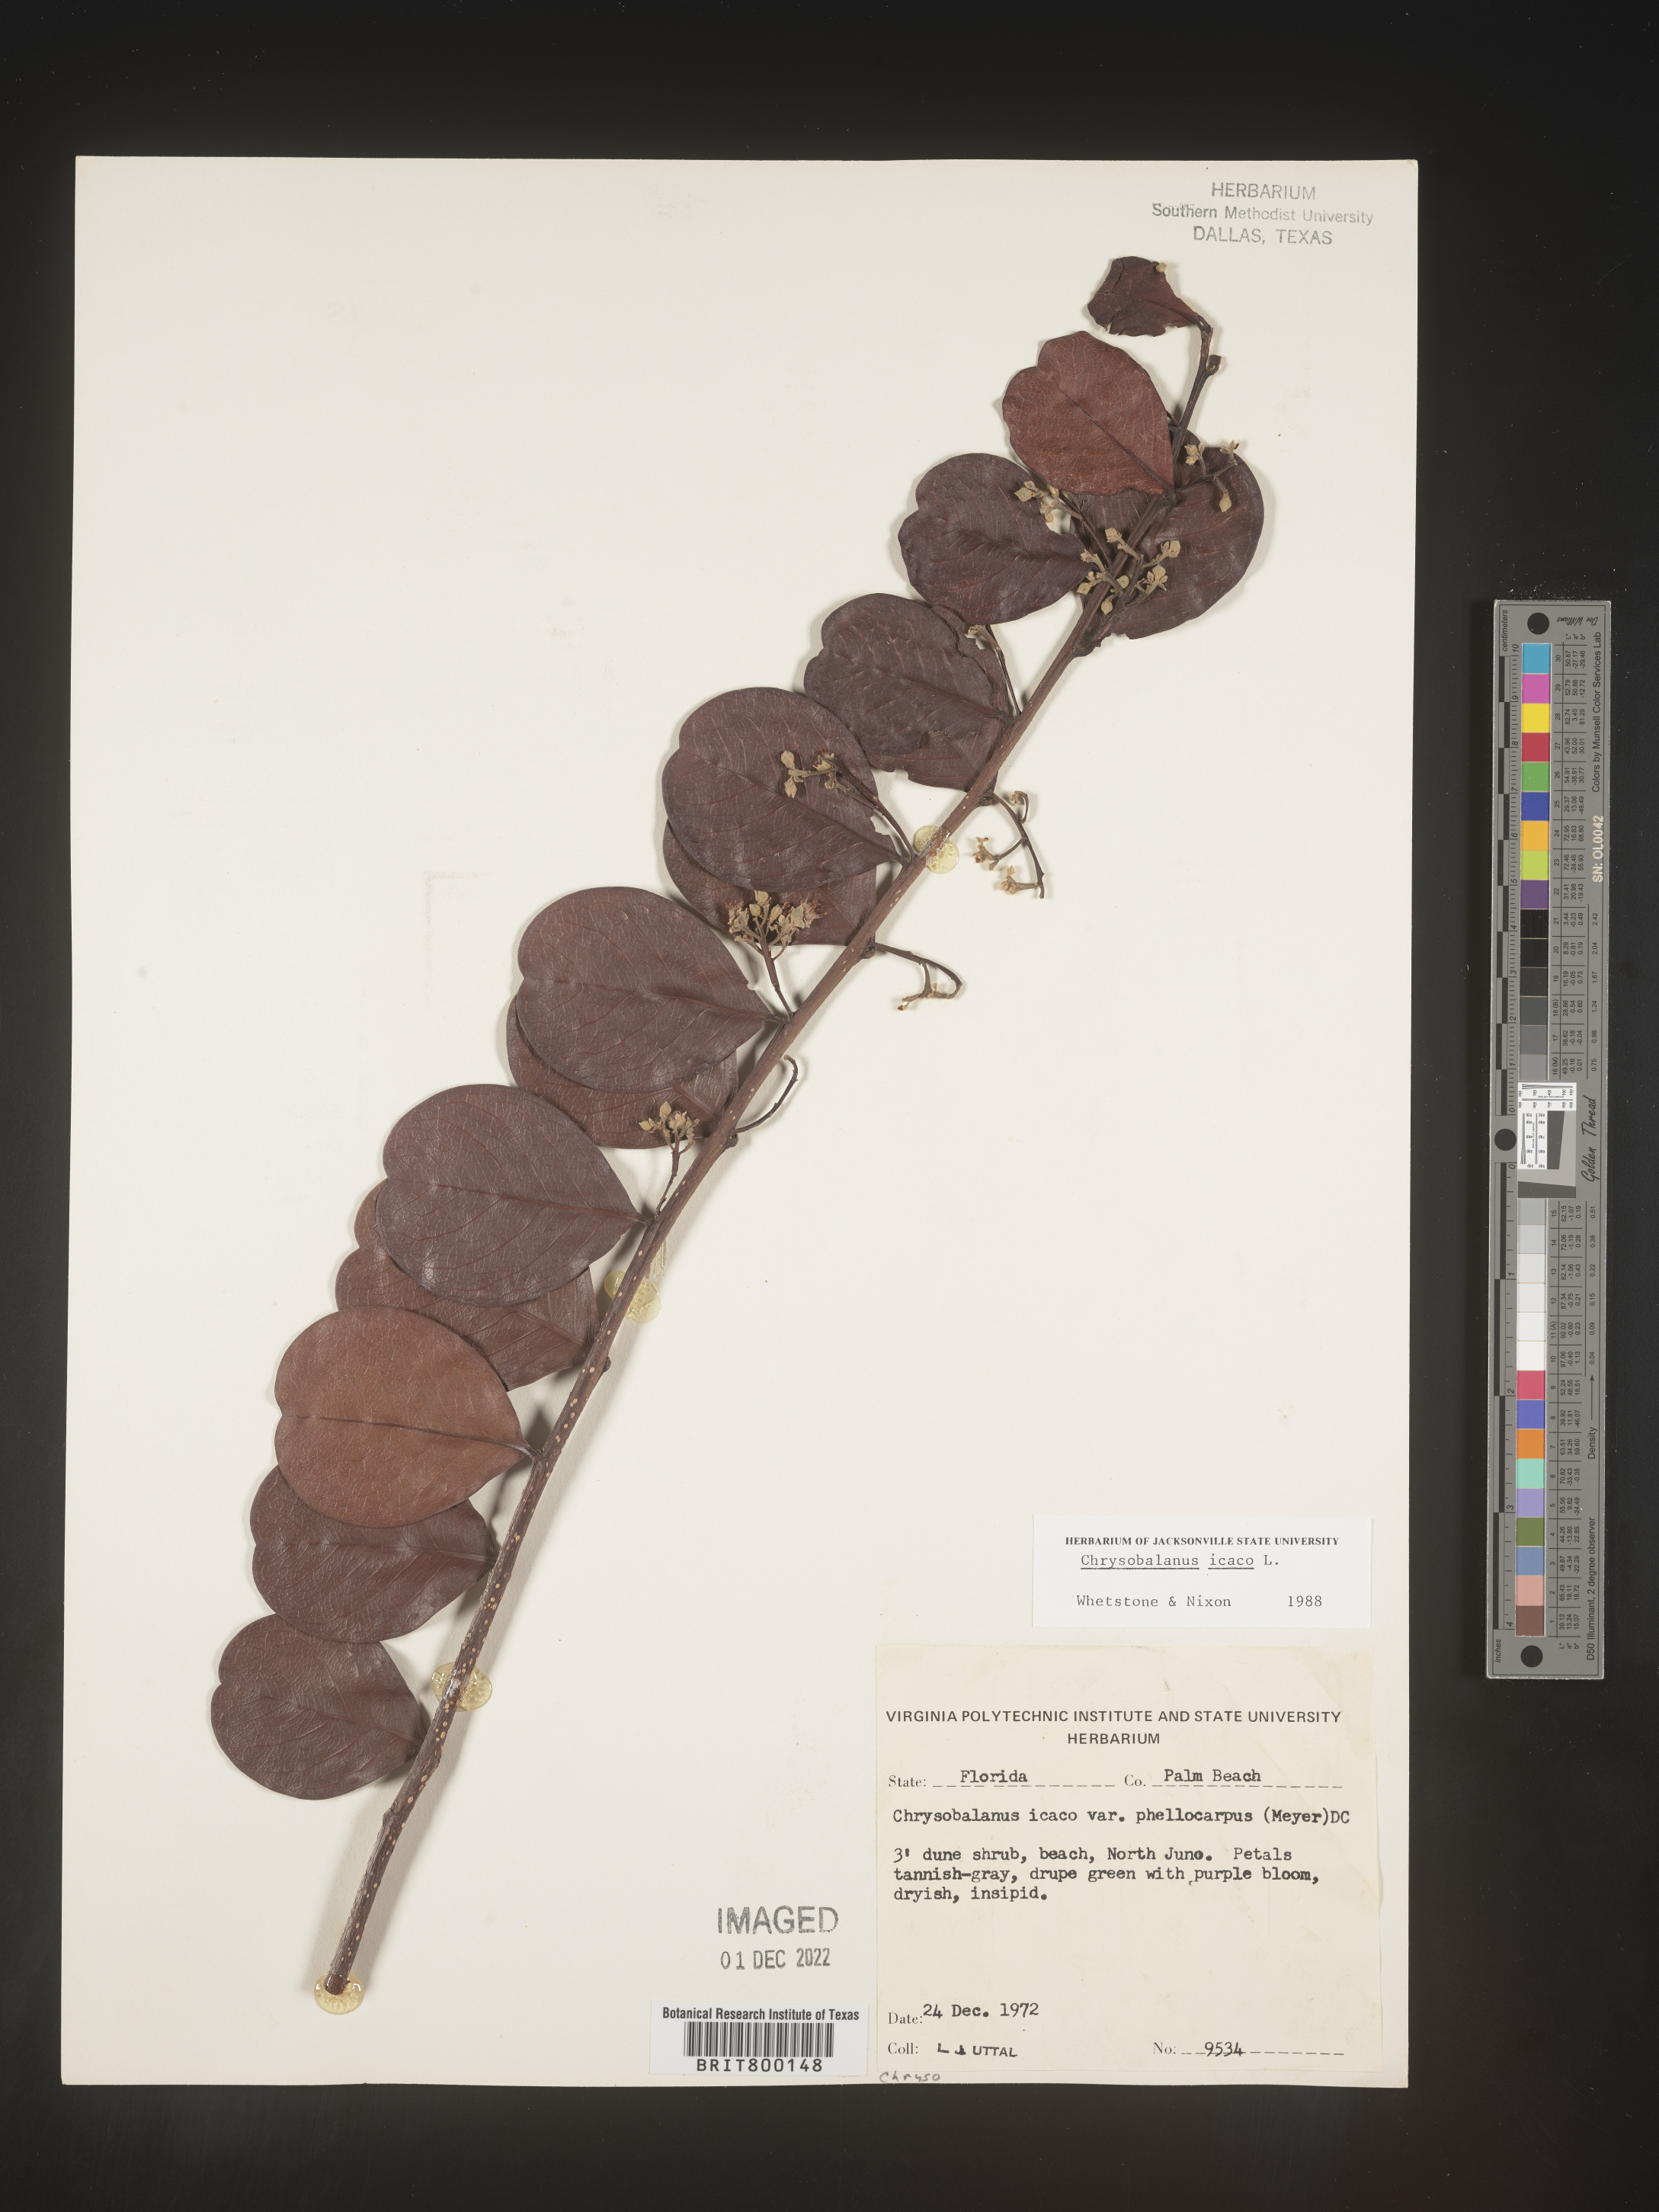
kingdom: Plantae
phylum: Tracheophyta
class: Magnoliopsida
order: Malpighiales
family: Chrysobalanaceae
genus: Chrysobalanus
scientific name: Chrysobalanus icaco
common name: Coco plum
